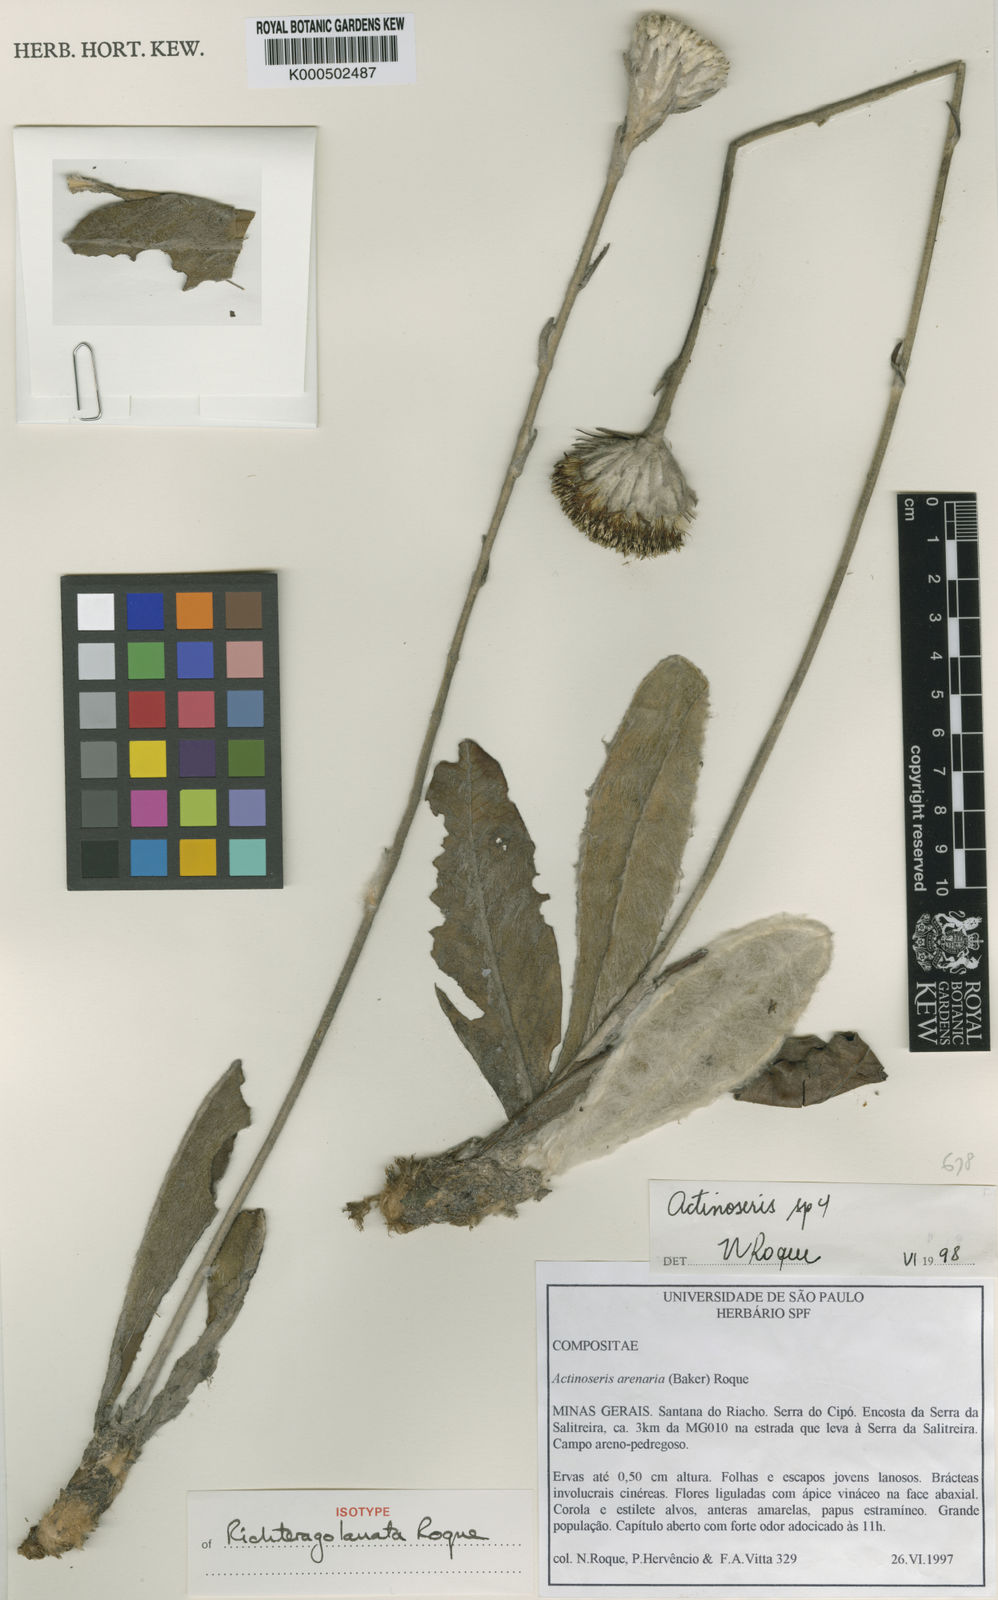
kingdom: Plantae
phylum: Tracheophyta
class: Magnoliopsida
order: Asterales
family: Asteraceae
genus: Richterago
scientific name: Richterago lanata
